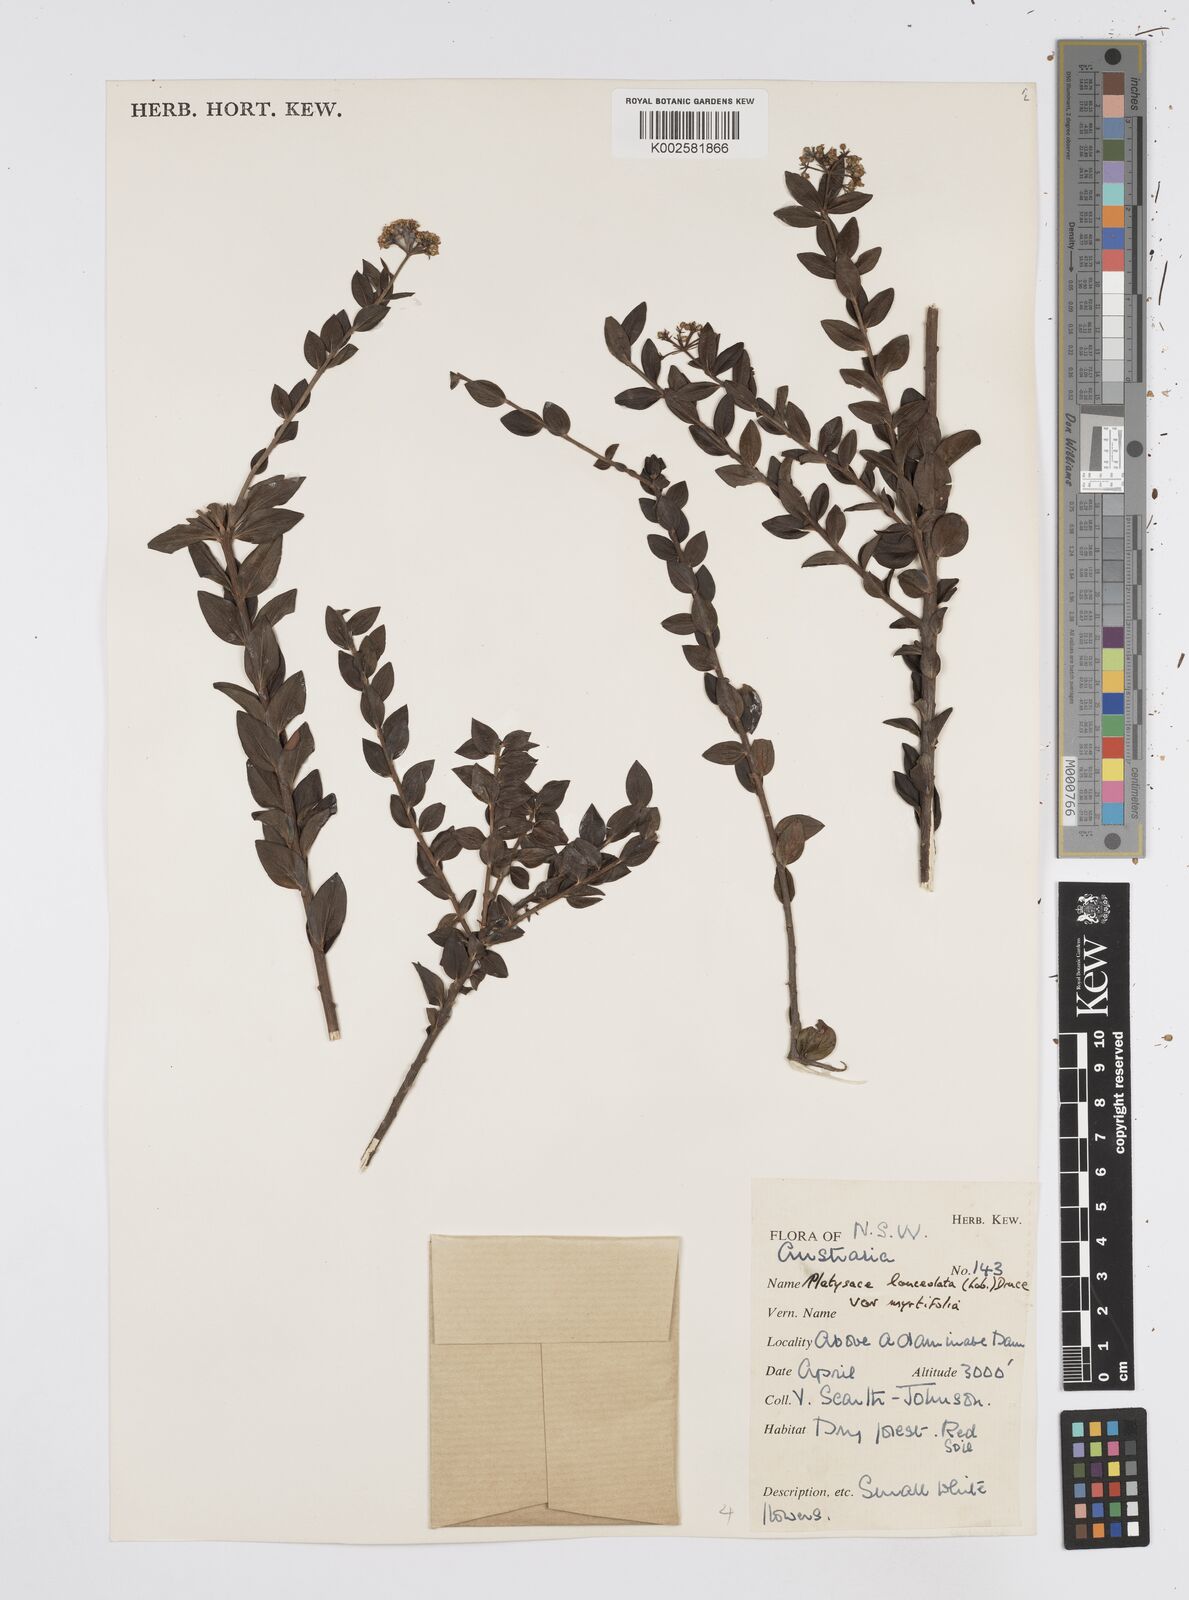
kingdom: Plantae
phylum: Tracheophyta
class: Magnoliopsida
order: Apiales
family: Apiaceae
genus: Platysace
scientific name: Platysace lanceolata
